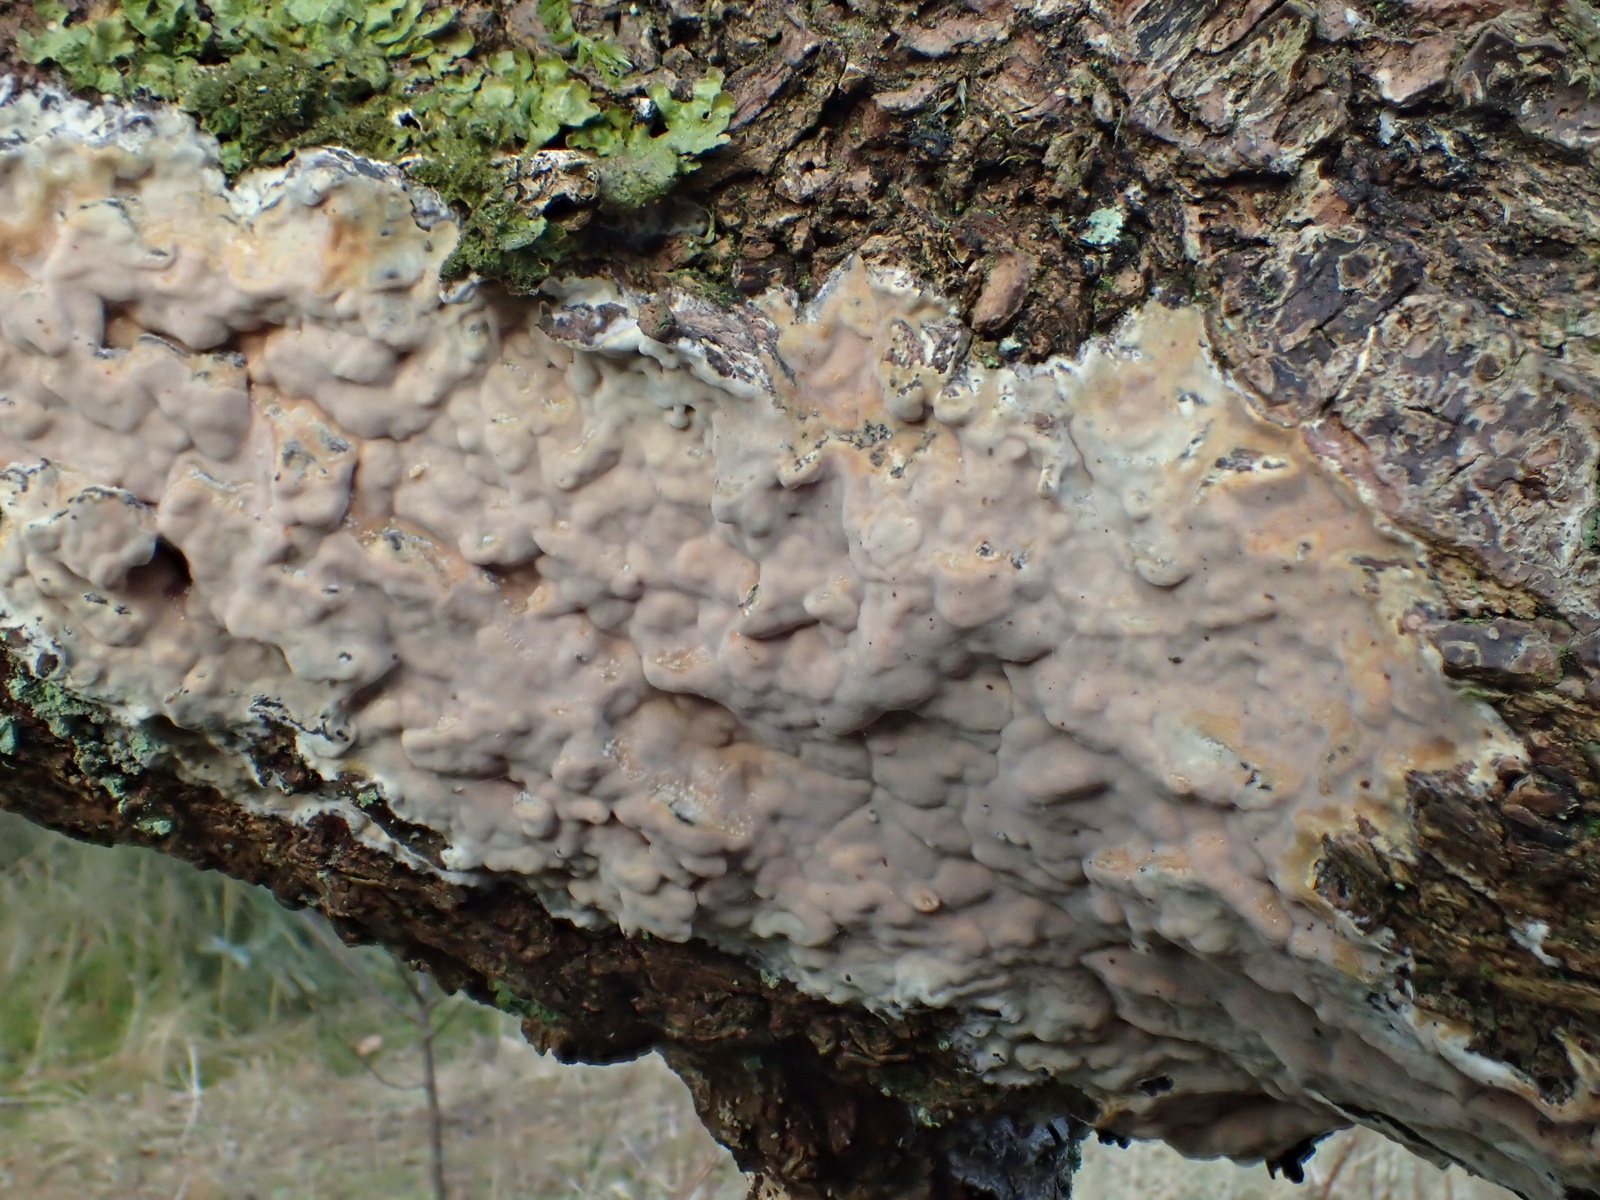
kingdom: Fungi
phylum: Basidiomycota
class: Agaricomycetes
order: Russulales
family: Peniophoraceae
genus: Scytinostroma
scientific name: Scytinostroma hemidichophyticum
